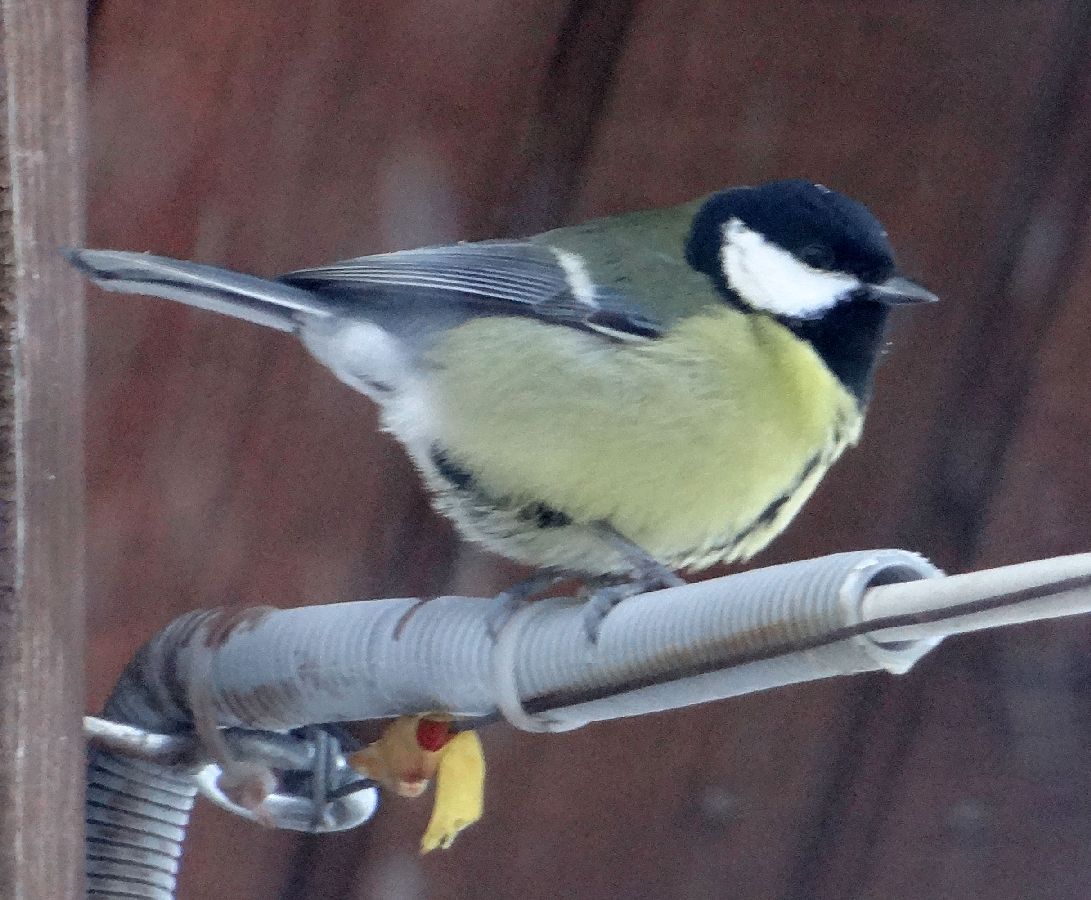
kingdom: Animalia
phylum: Chordata
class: Aves
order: Passeriformes
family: Paridae
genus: Parus
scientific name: Parus major
